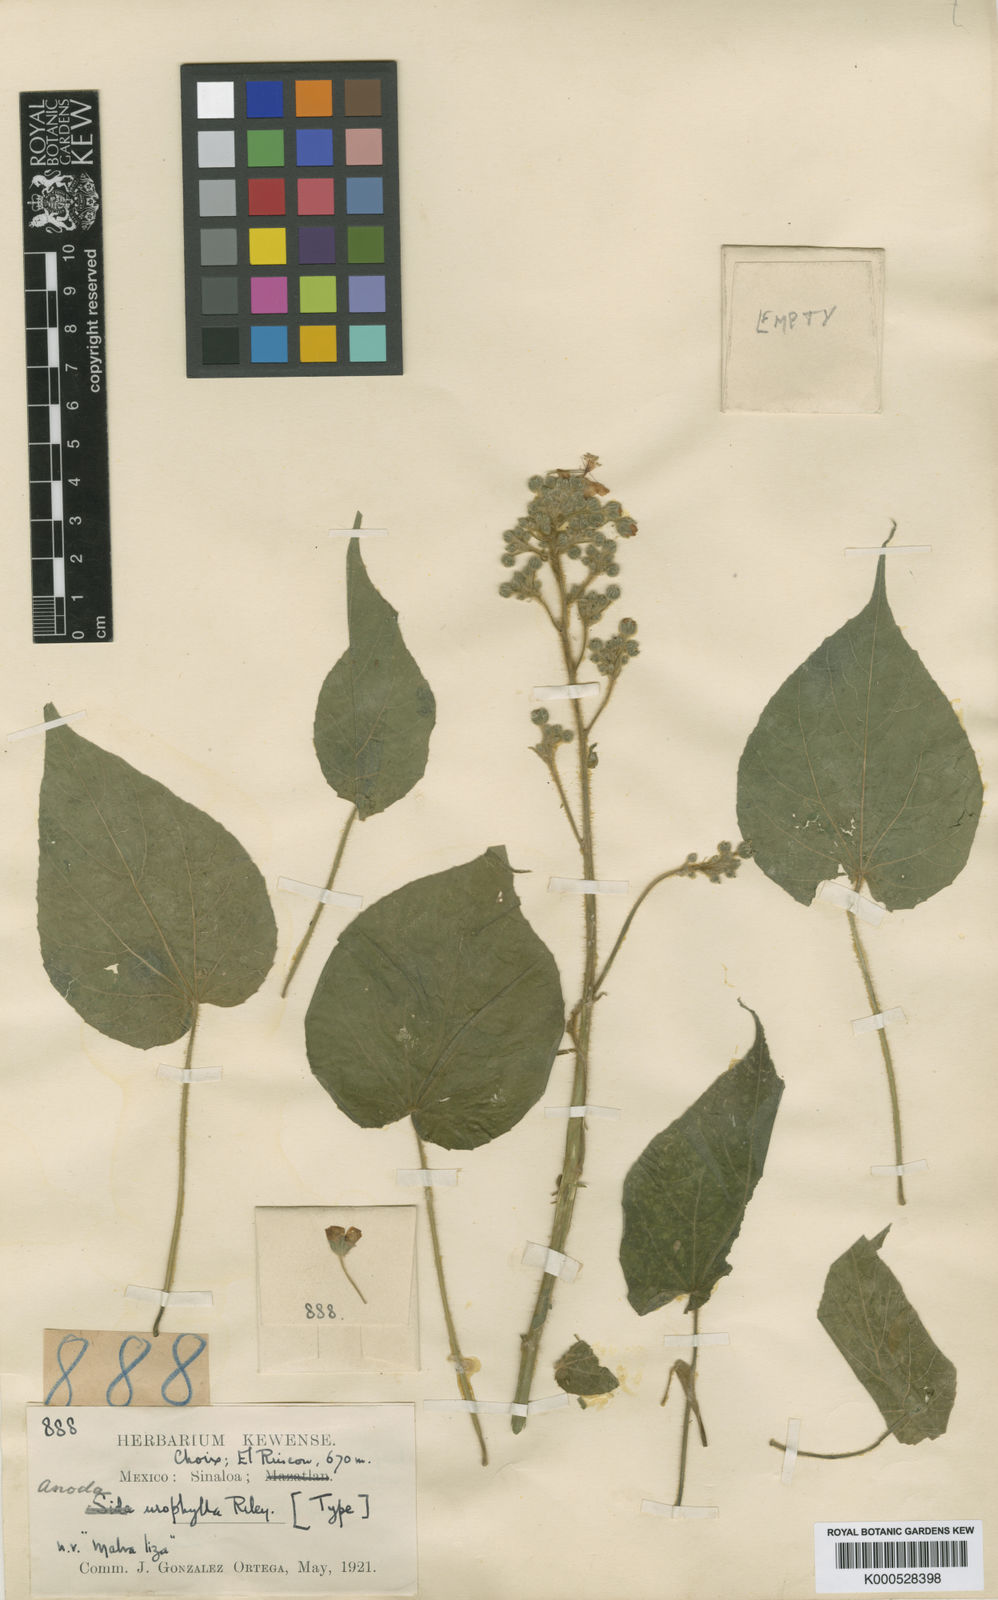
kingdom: Plantae
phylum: Tracheophyta
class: Magnoliopsida
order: Malvales
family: Malvaceae
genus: Anoda
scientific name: Anoda
